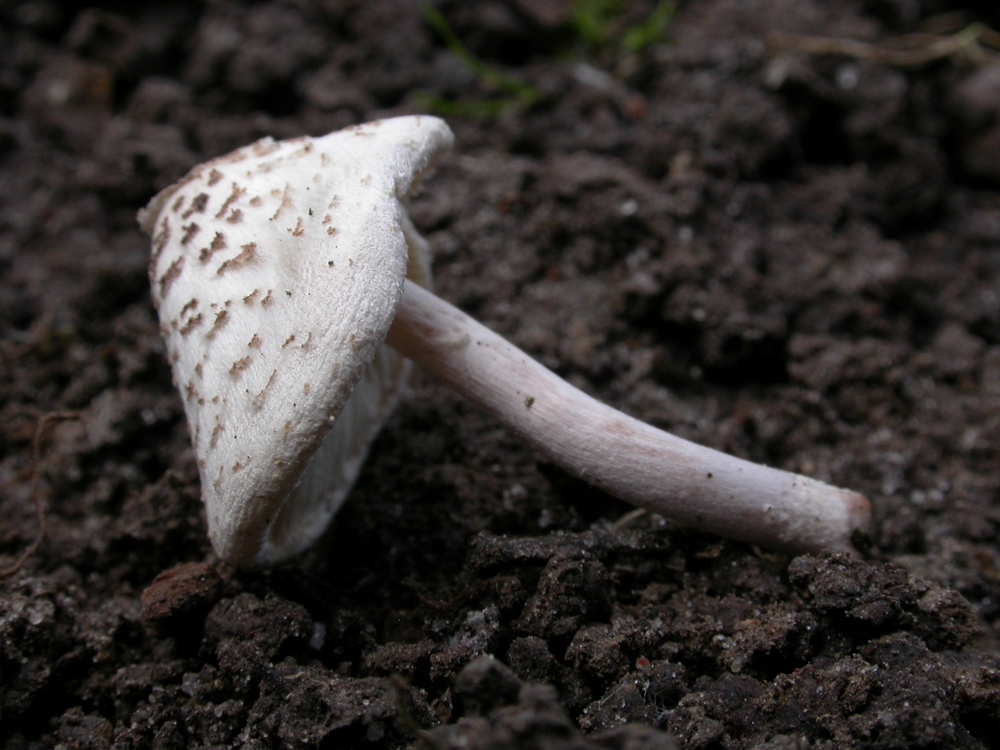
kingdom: Fungi
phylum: Basidiomycota
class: Agaricomycetes
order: Agaricales
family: Agaricaceae
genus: Lepiota
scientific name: Lepiota cristata
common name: stinkende parasolhat
